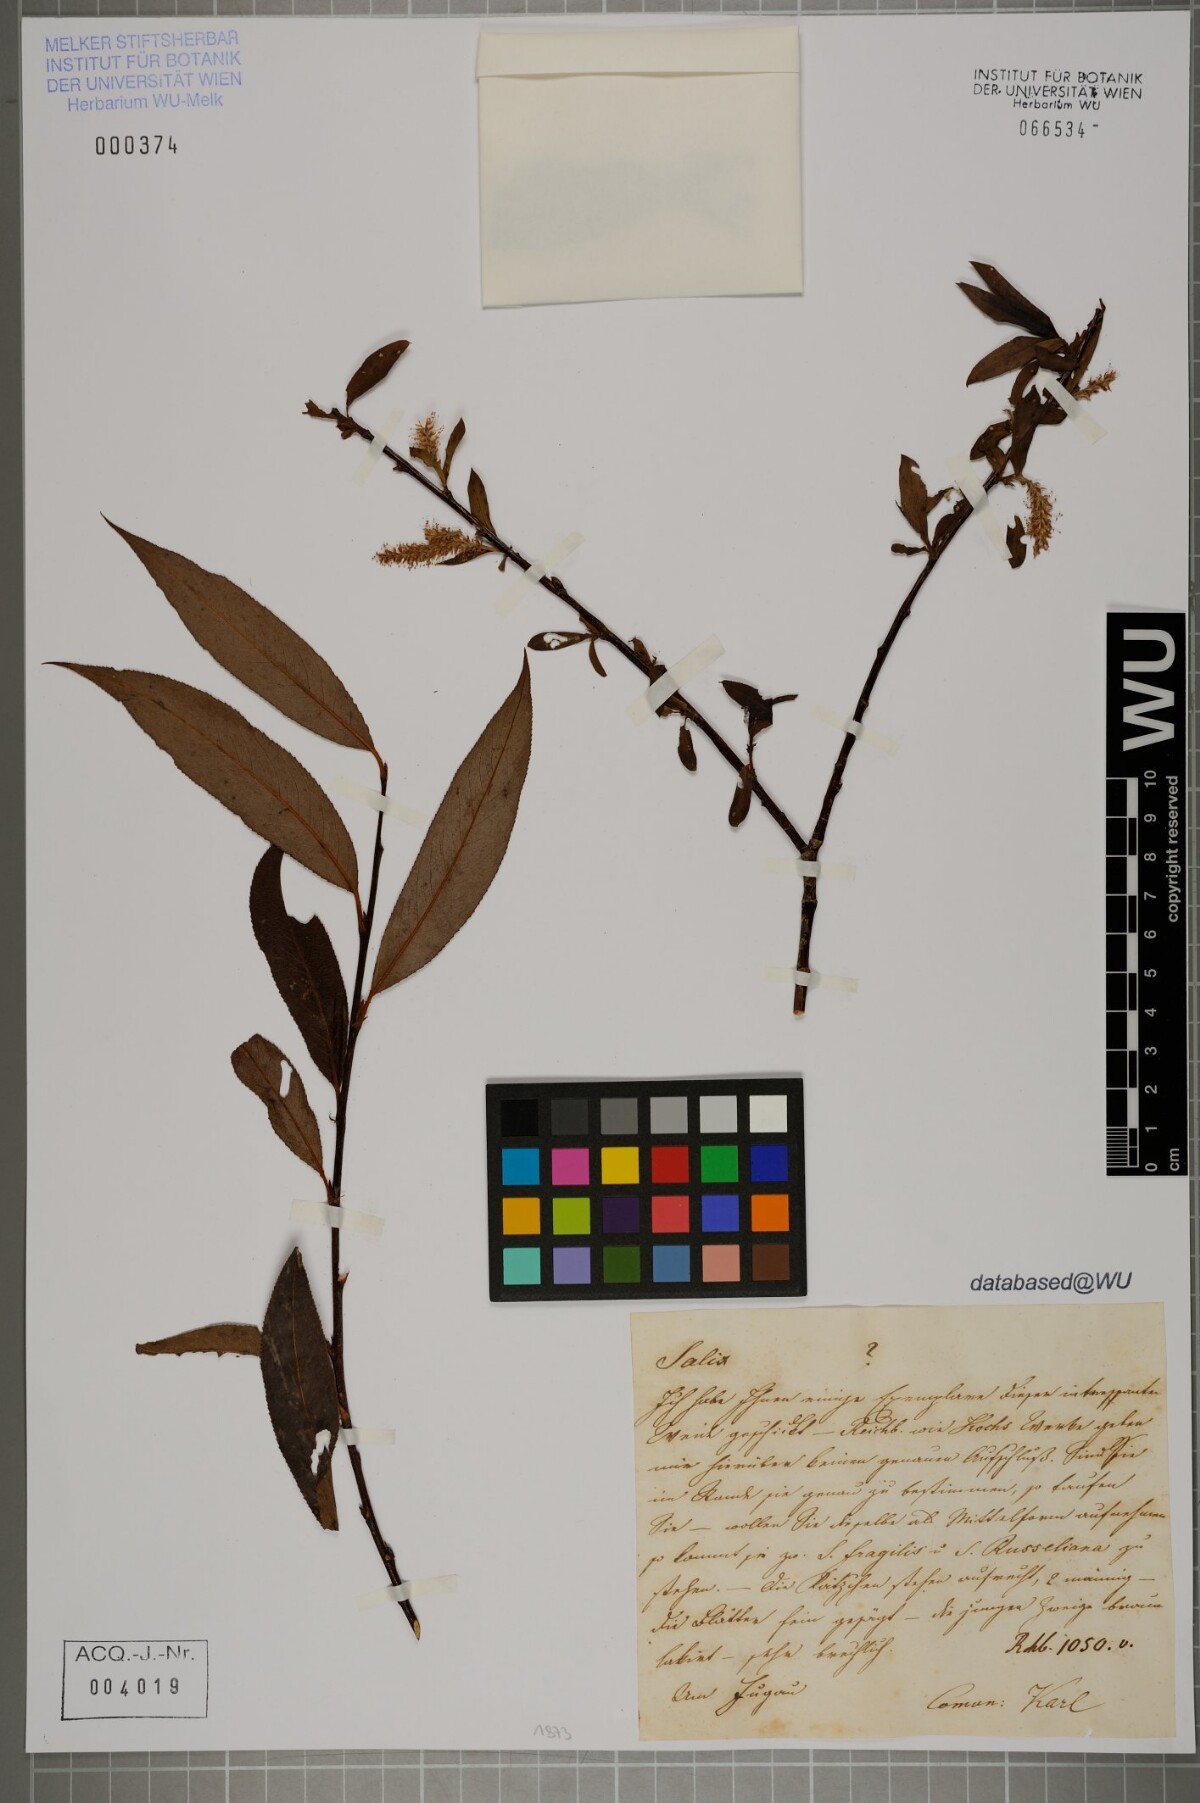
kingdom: Plantae
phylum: Tracheophyta
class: Magnoliopsida
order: Malpighiales
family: Salicaceae
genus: Salix
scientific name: Salix
